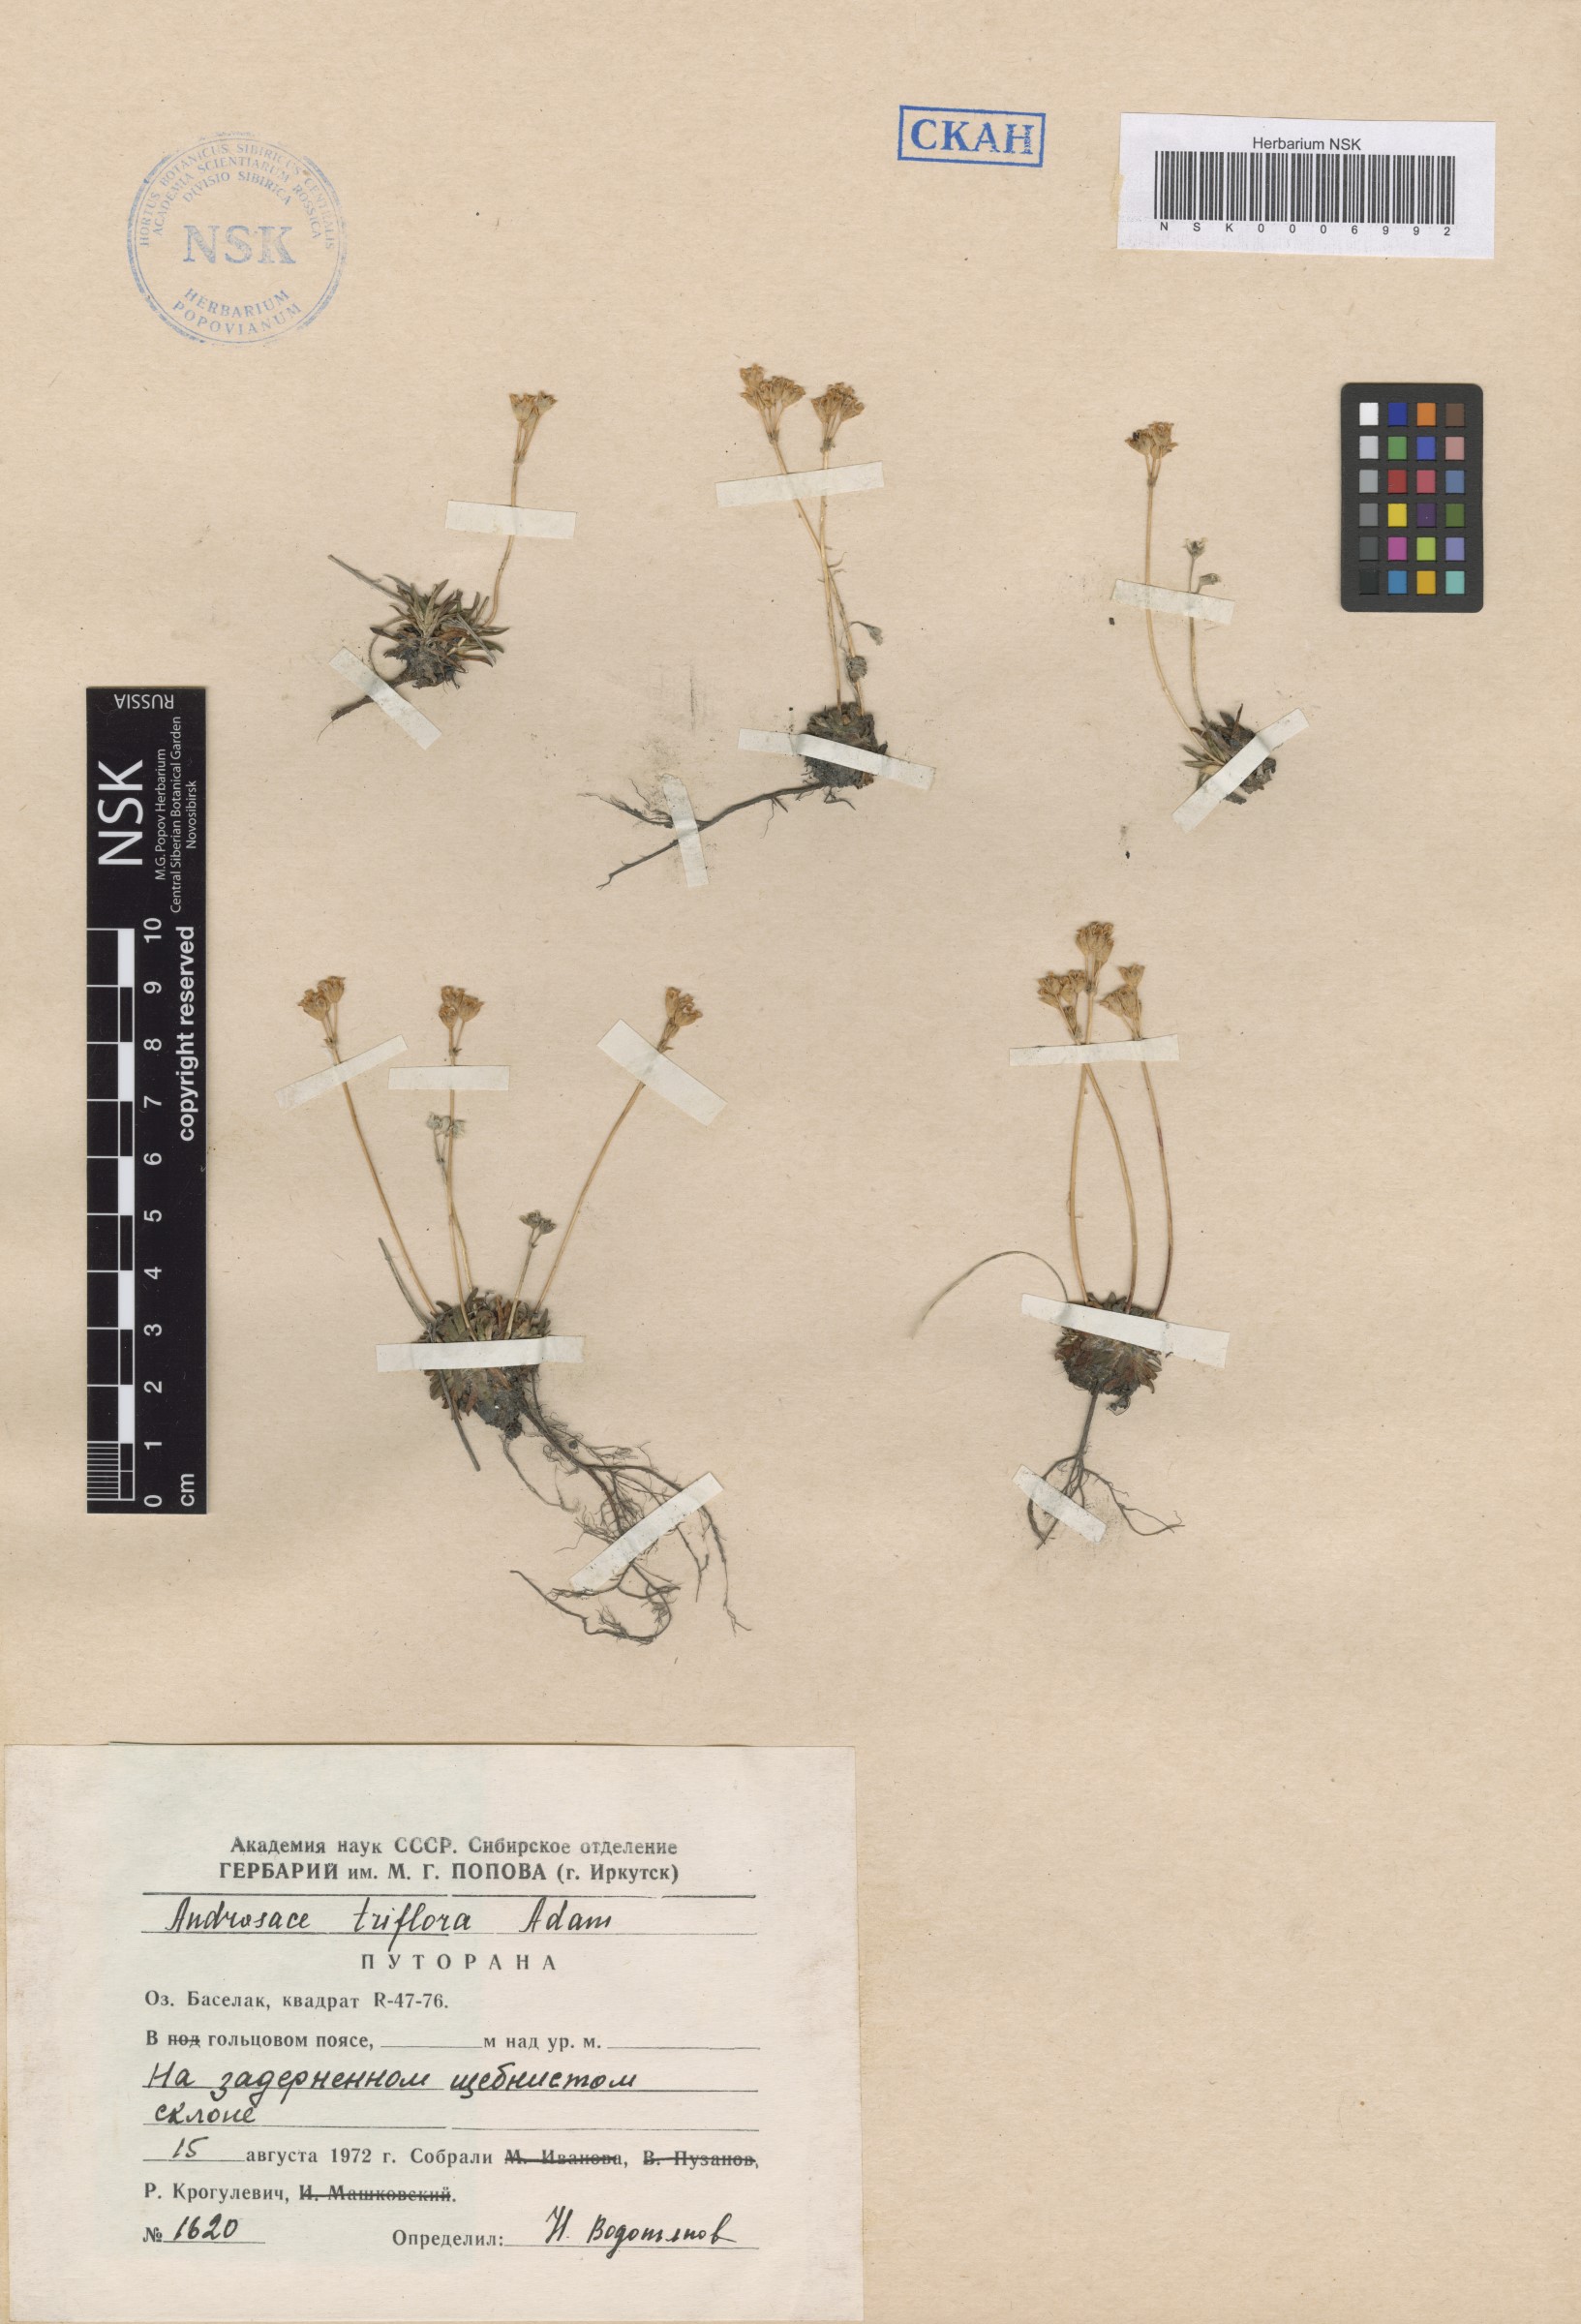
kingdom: Plantae
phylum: Tracheophyta
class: Magnoliopsida
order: Ericales
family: Primulaceae
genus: Androsace
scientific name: Androsace triflora
